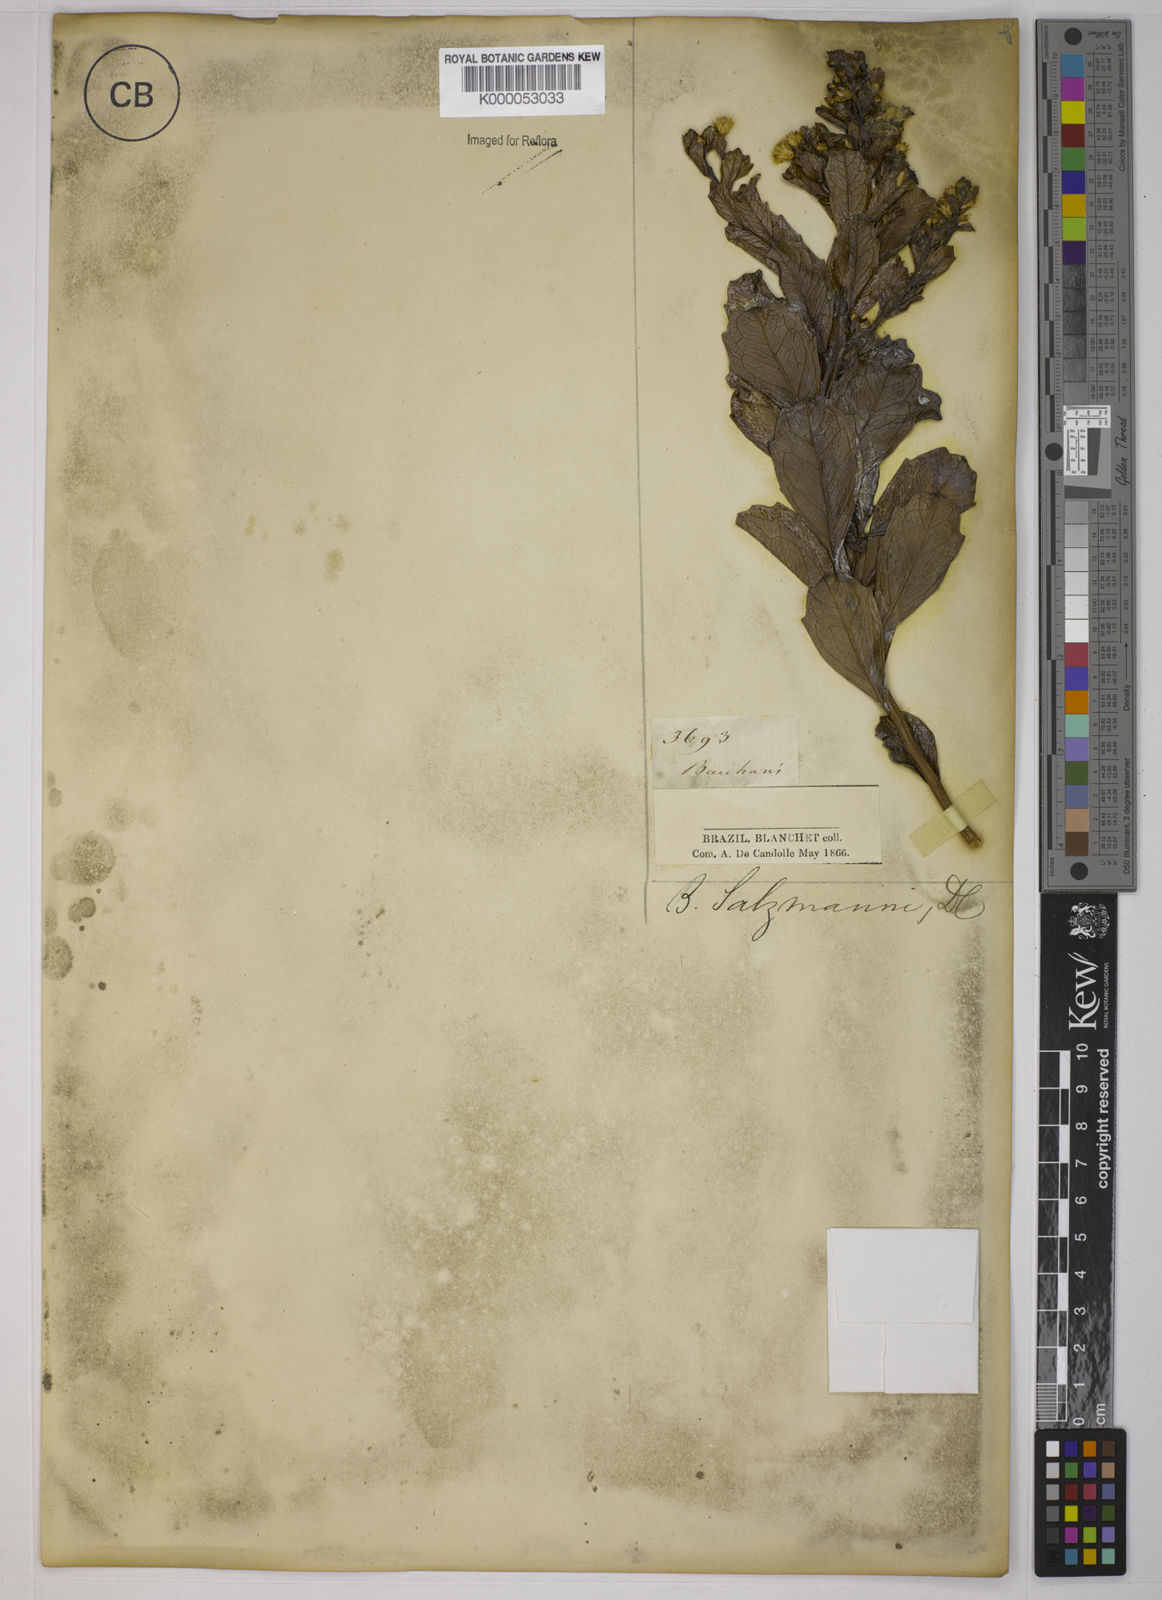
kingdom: Plantae
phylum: Tracheophyta
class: Magnoliopsida
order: Asterales
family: Asteraceae
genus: Baccharis
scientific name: Baccharis retusa
